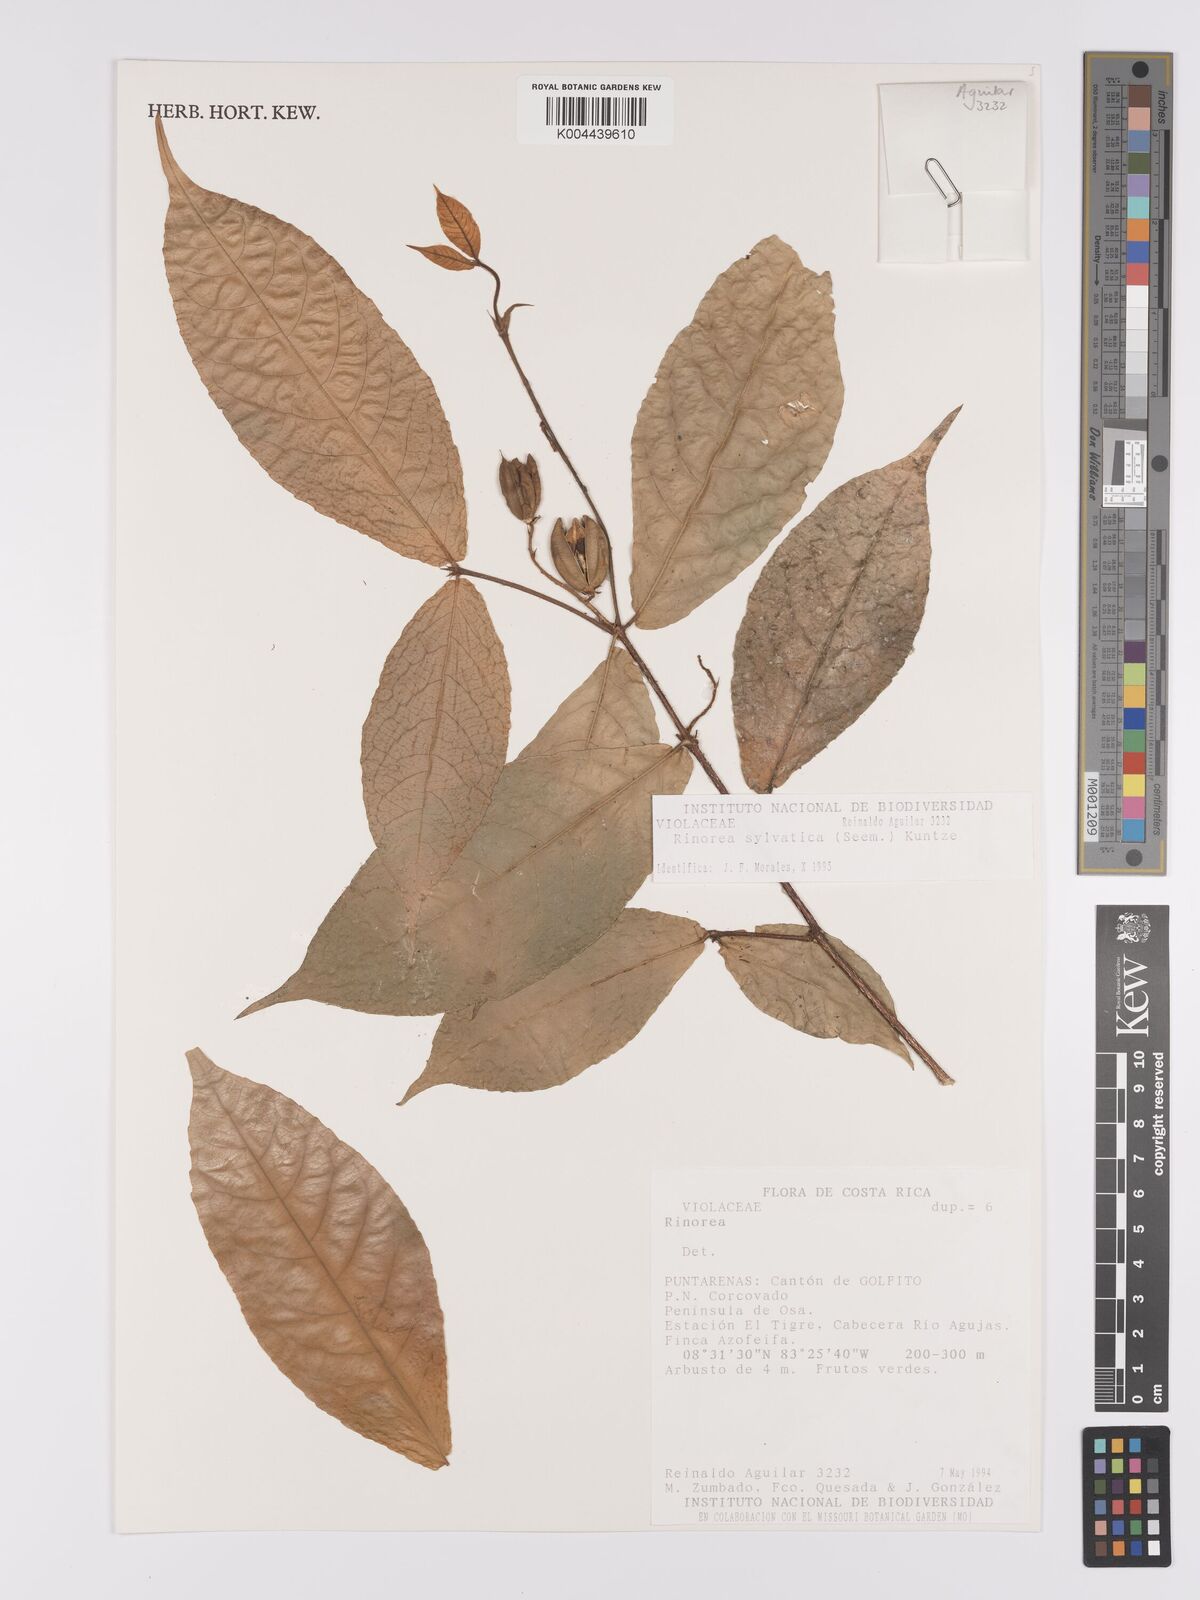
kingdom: Plantae
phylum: Tracheophyta
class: Magnoliopsida
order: Malpighiales
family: Violaceae
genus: Rinorea
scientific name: Rinorea sylvatica
